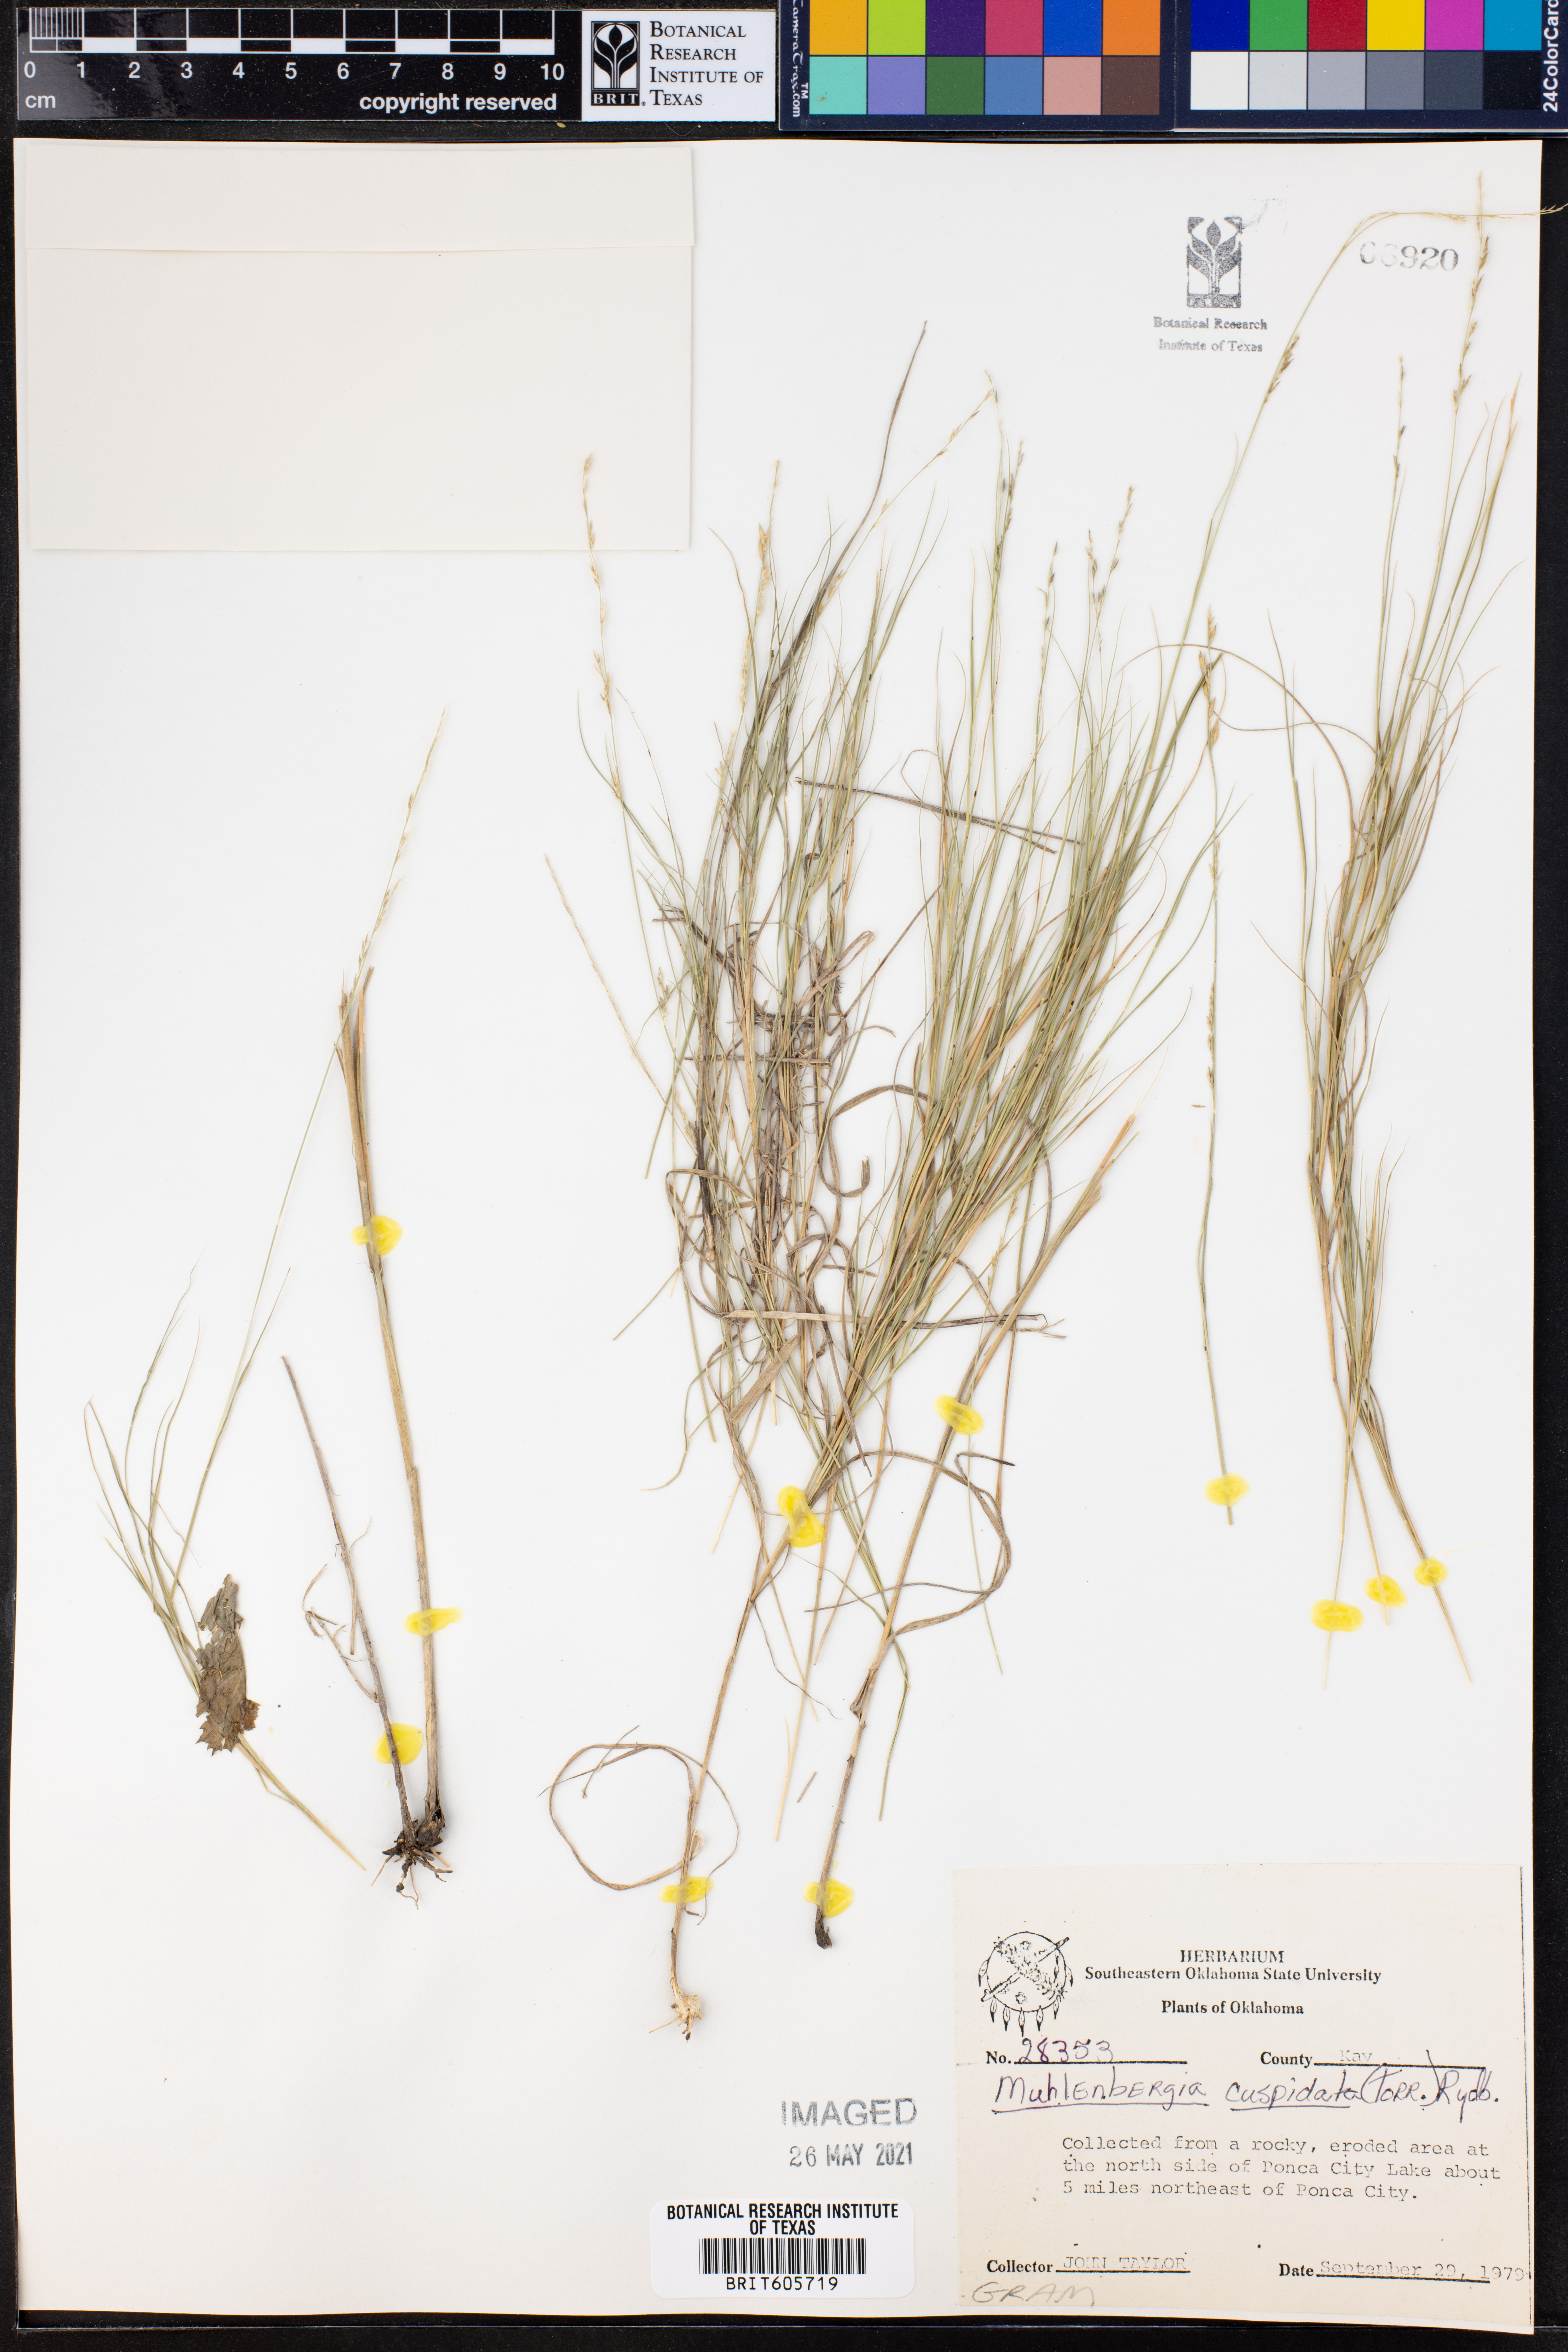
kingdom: Plantae
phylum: Tracheophyta
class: Liliopsida
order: Poales
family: Poaceae
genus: Muhlenbergia
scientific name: Muhlenbergia cuspidata
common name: Plains muhly
